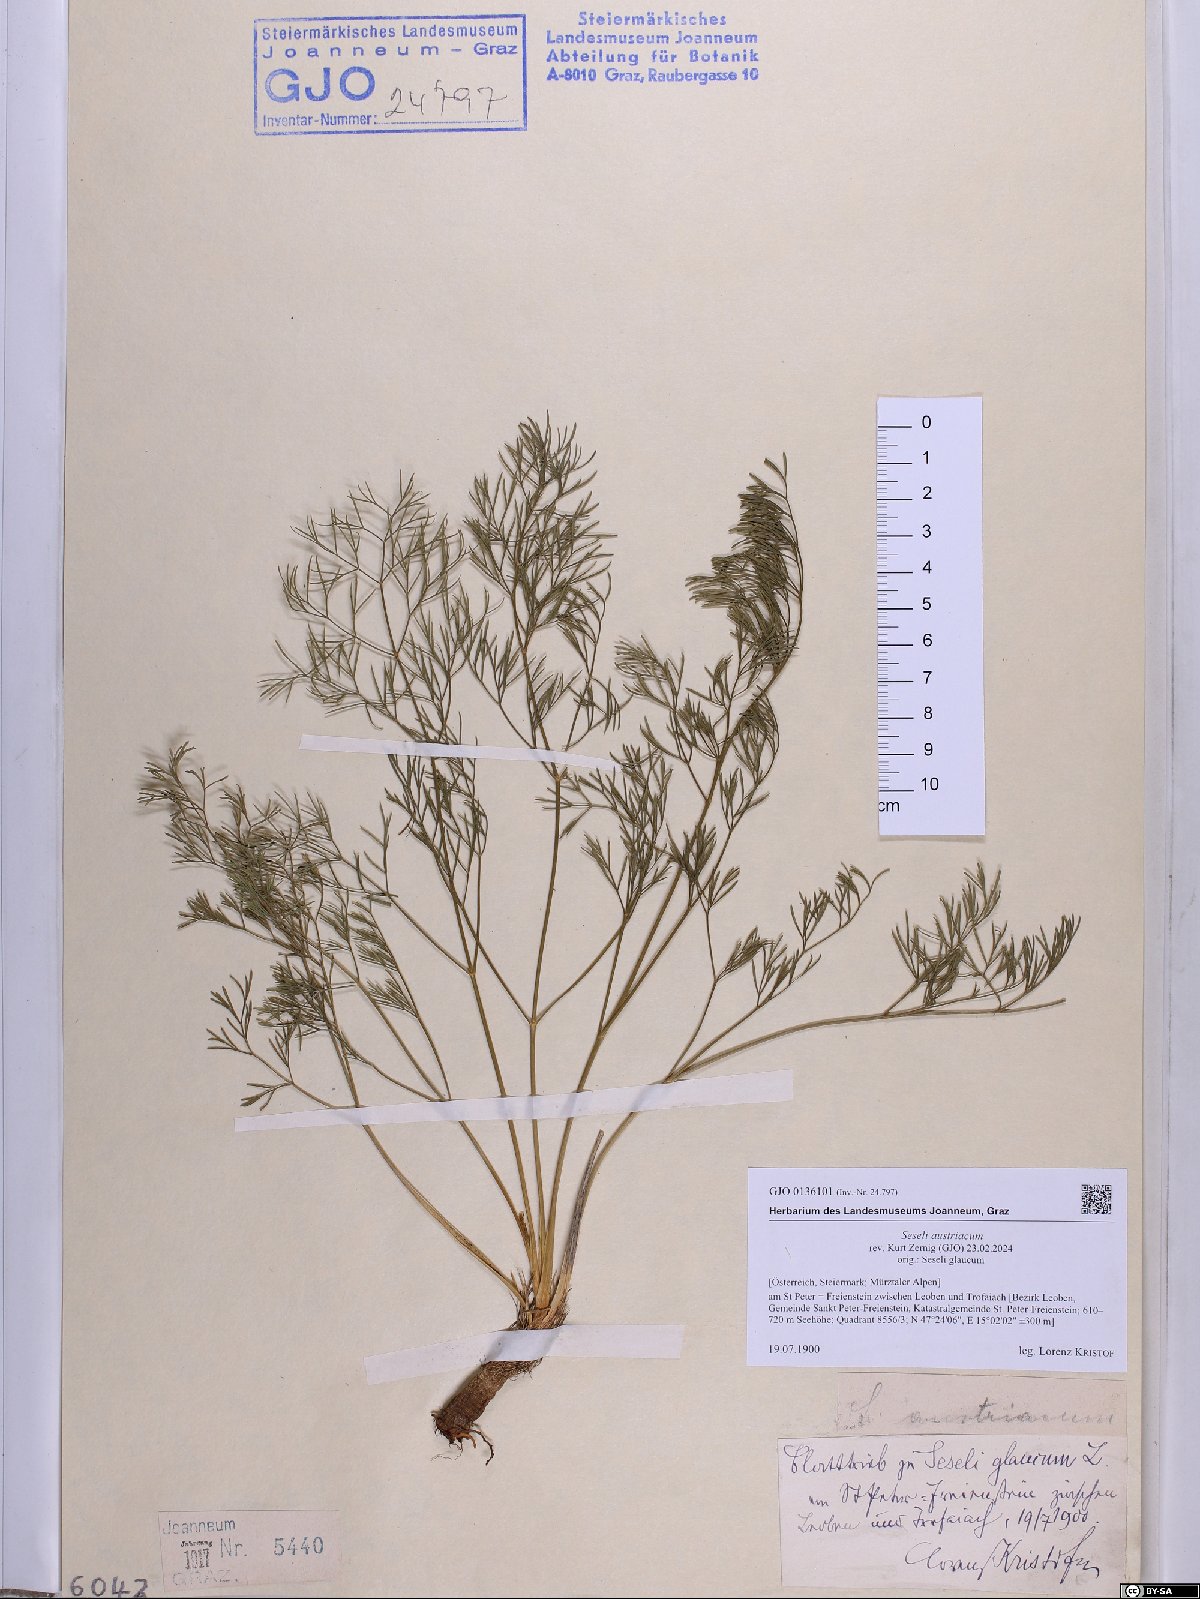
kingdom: Plantae
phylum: Tracheophyta
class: Magnoliopsida
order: Apiales
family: Apiaceae
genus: Seseli
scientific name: Seseli austriacum
